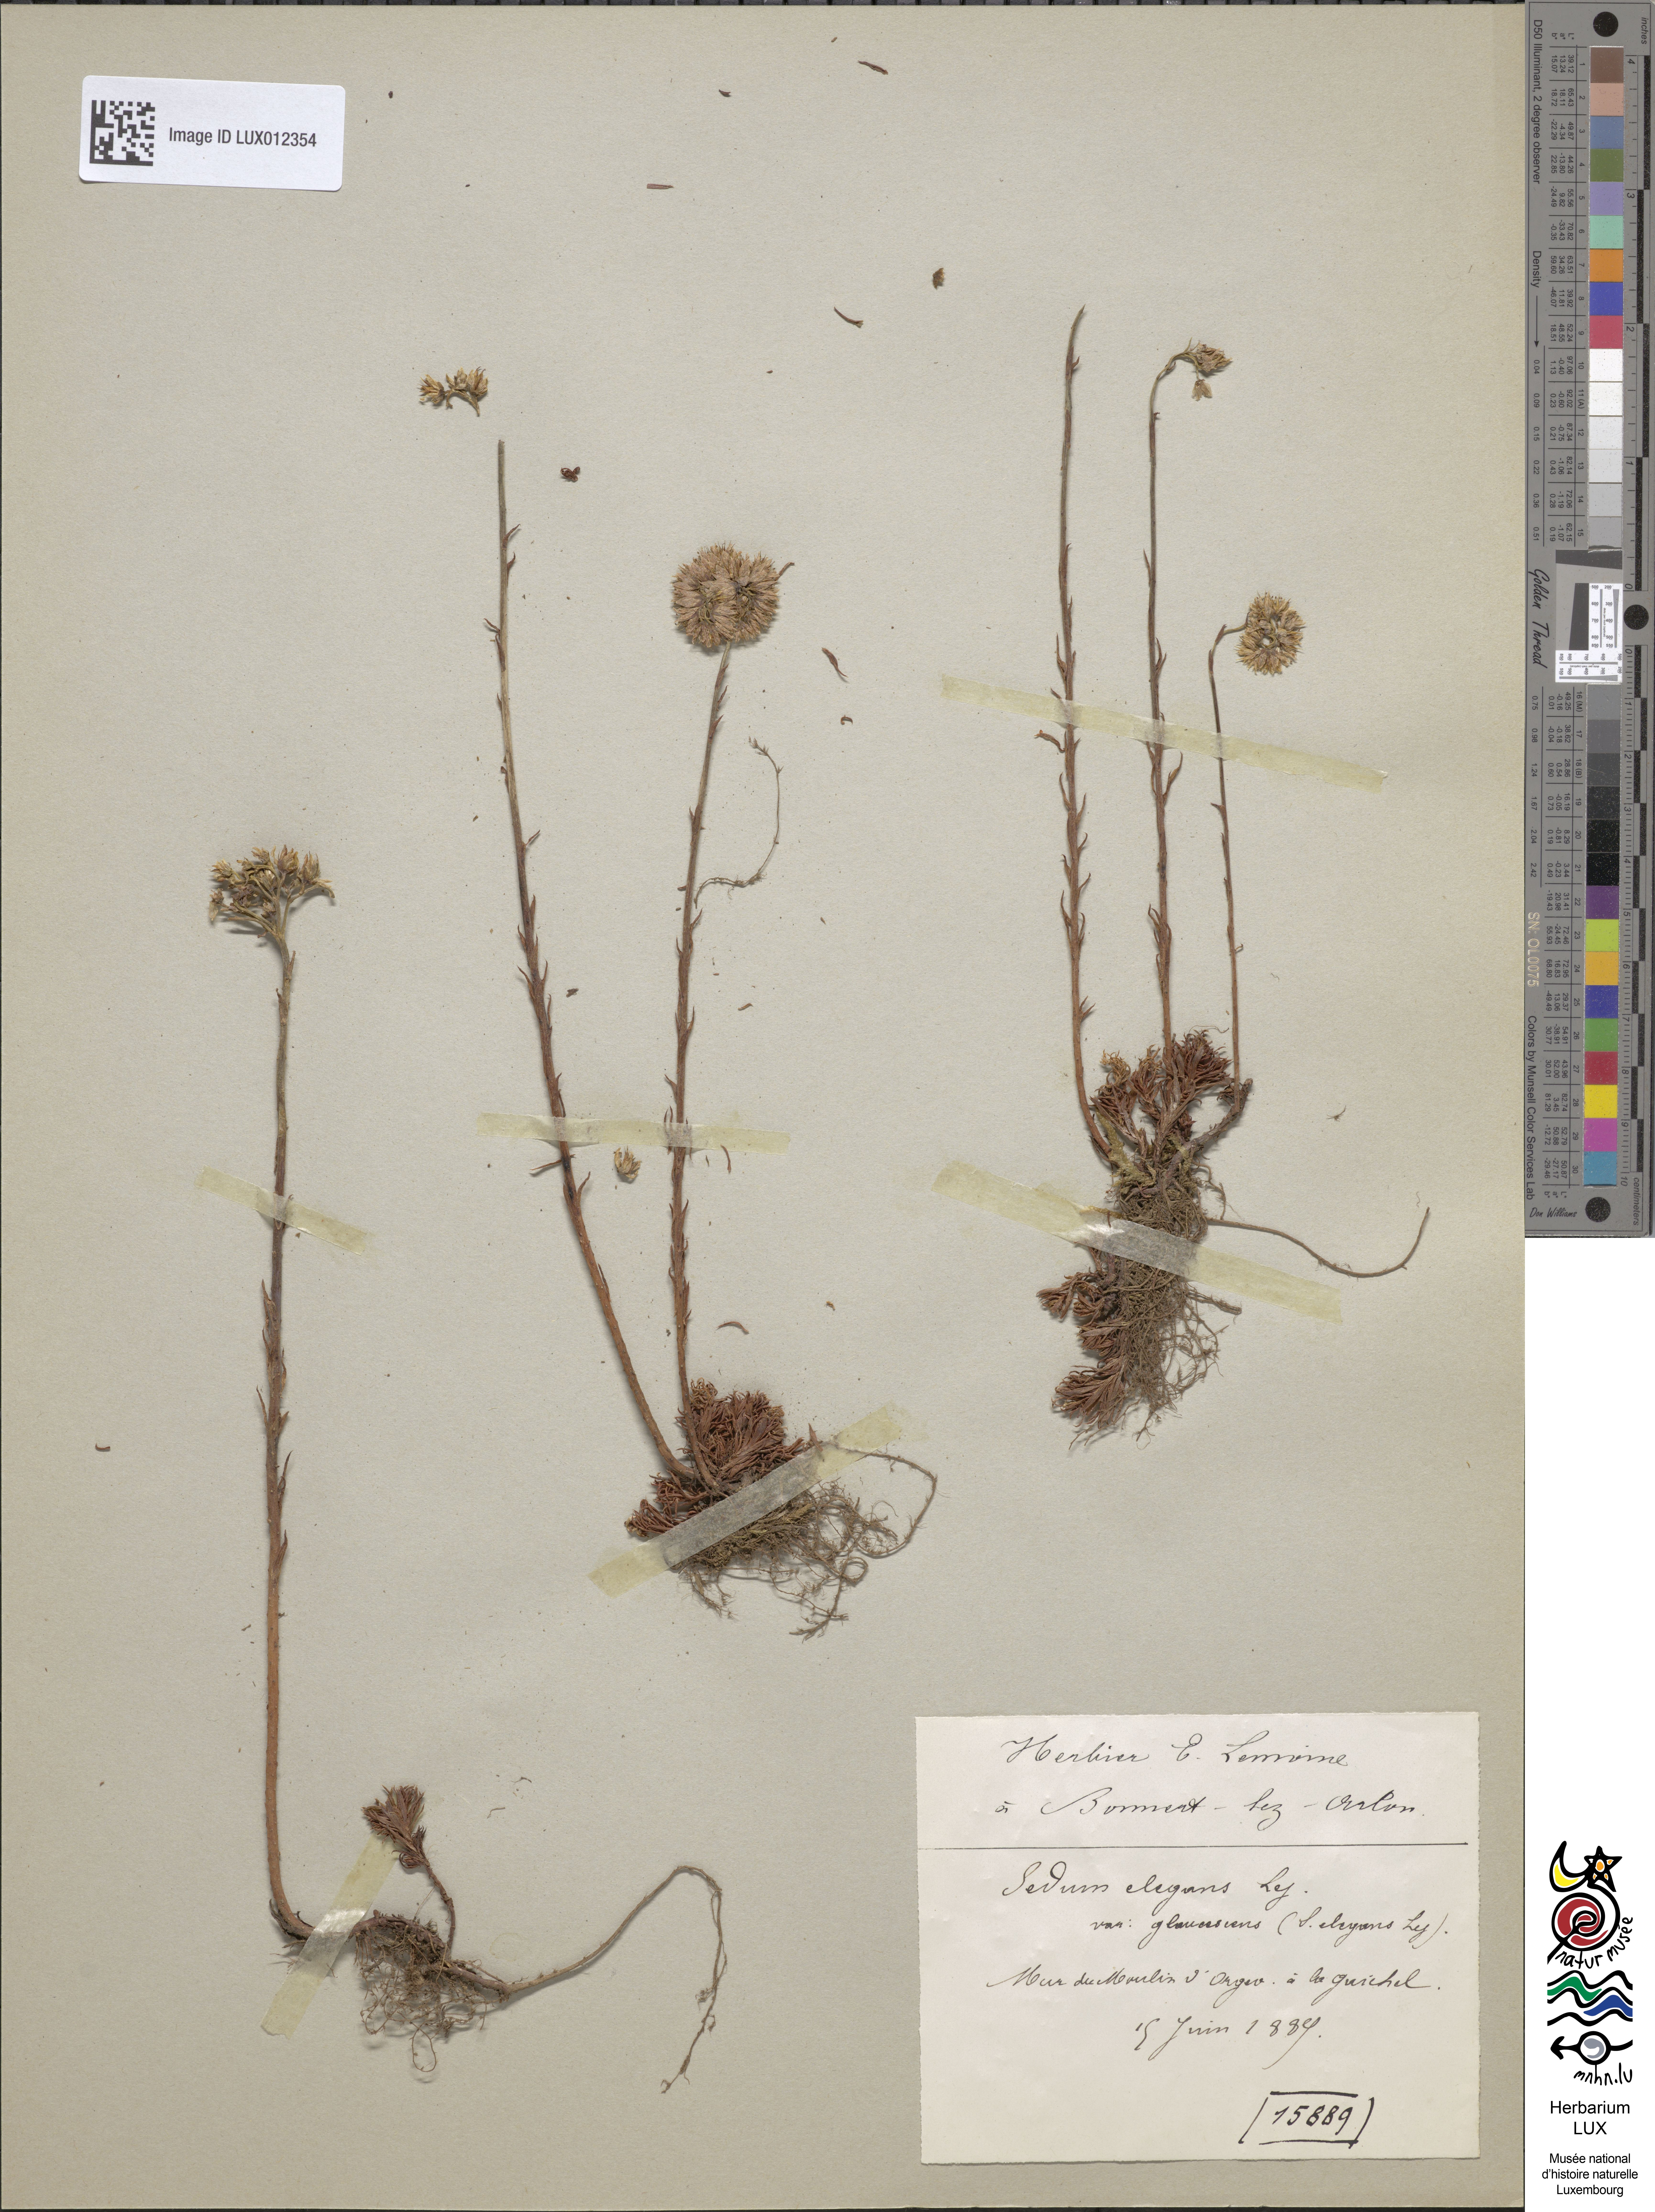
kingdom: Plantae
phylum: Tracheophyta
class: Magnoliopsida
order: Saxifragales
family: Crassulaceae
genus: Petrosedum
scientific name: Petrosedum forsterianum
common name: Forster's stonecrop
